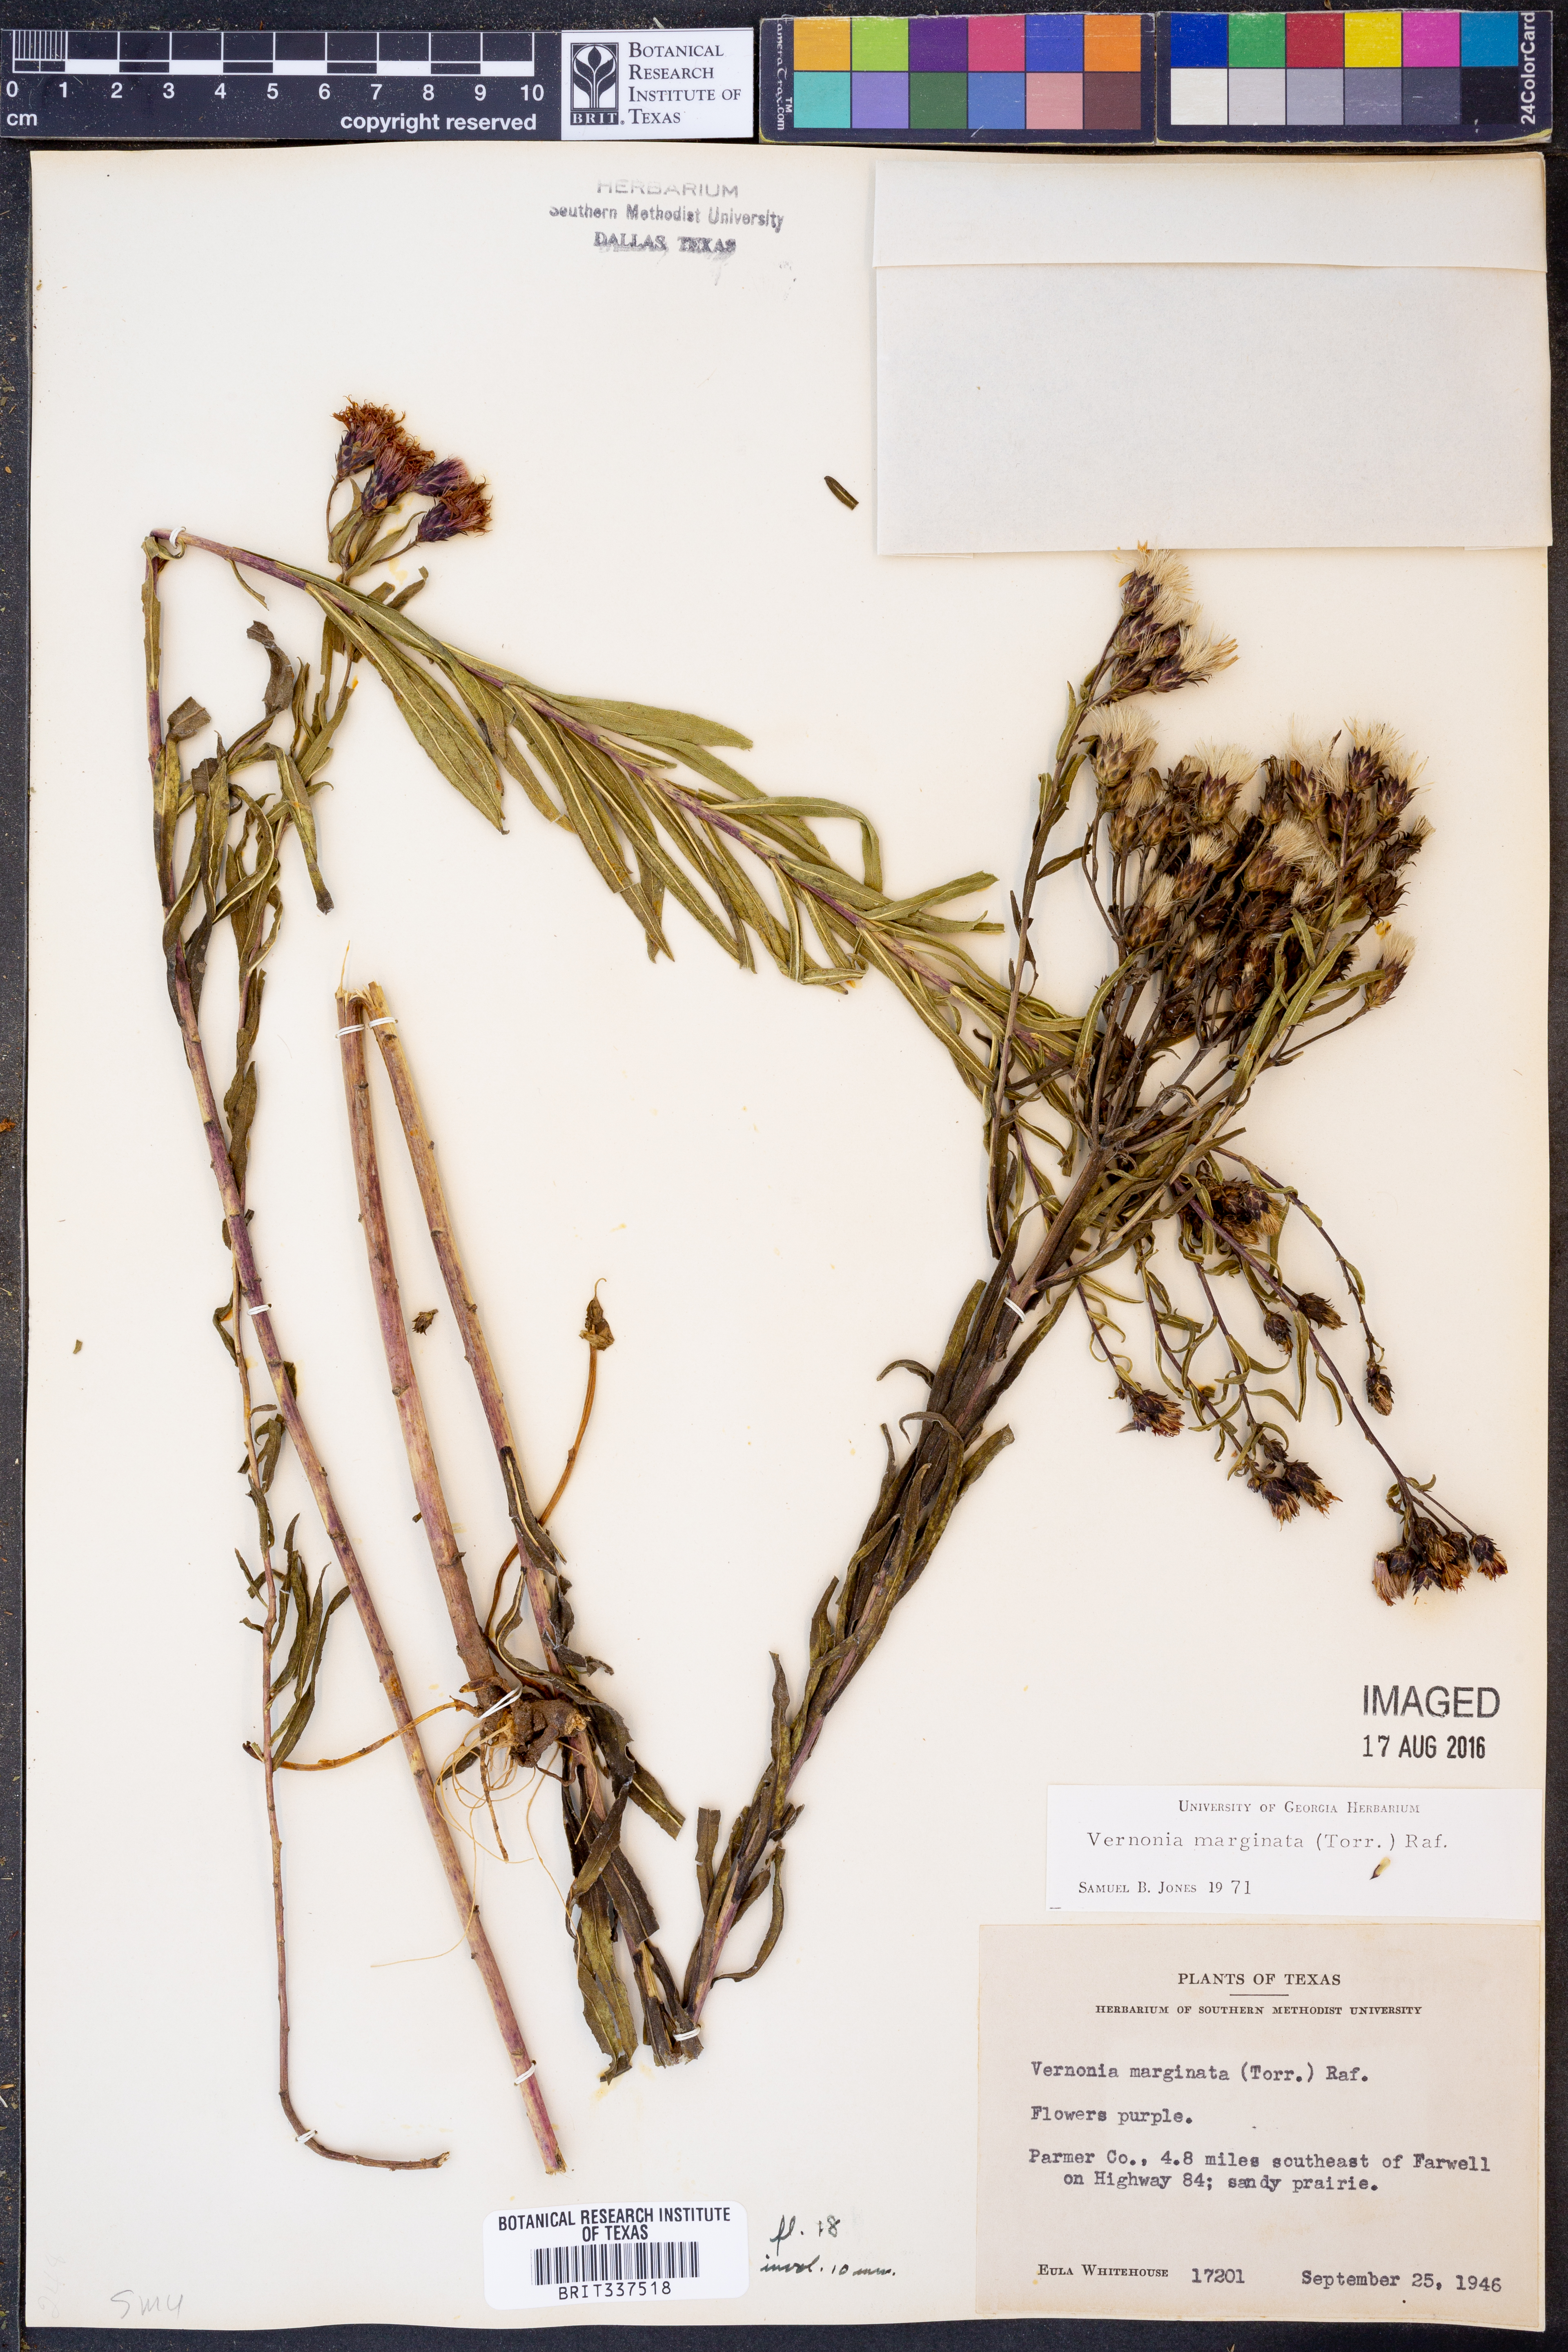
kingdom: Plantae
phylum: Tracheophyta
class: Magnoliopsida
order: Asterales
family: Asteraceae
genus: Vernonia
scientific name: Vernonia marginata
